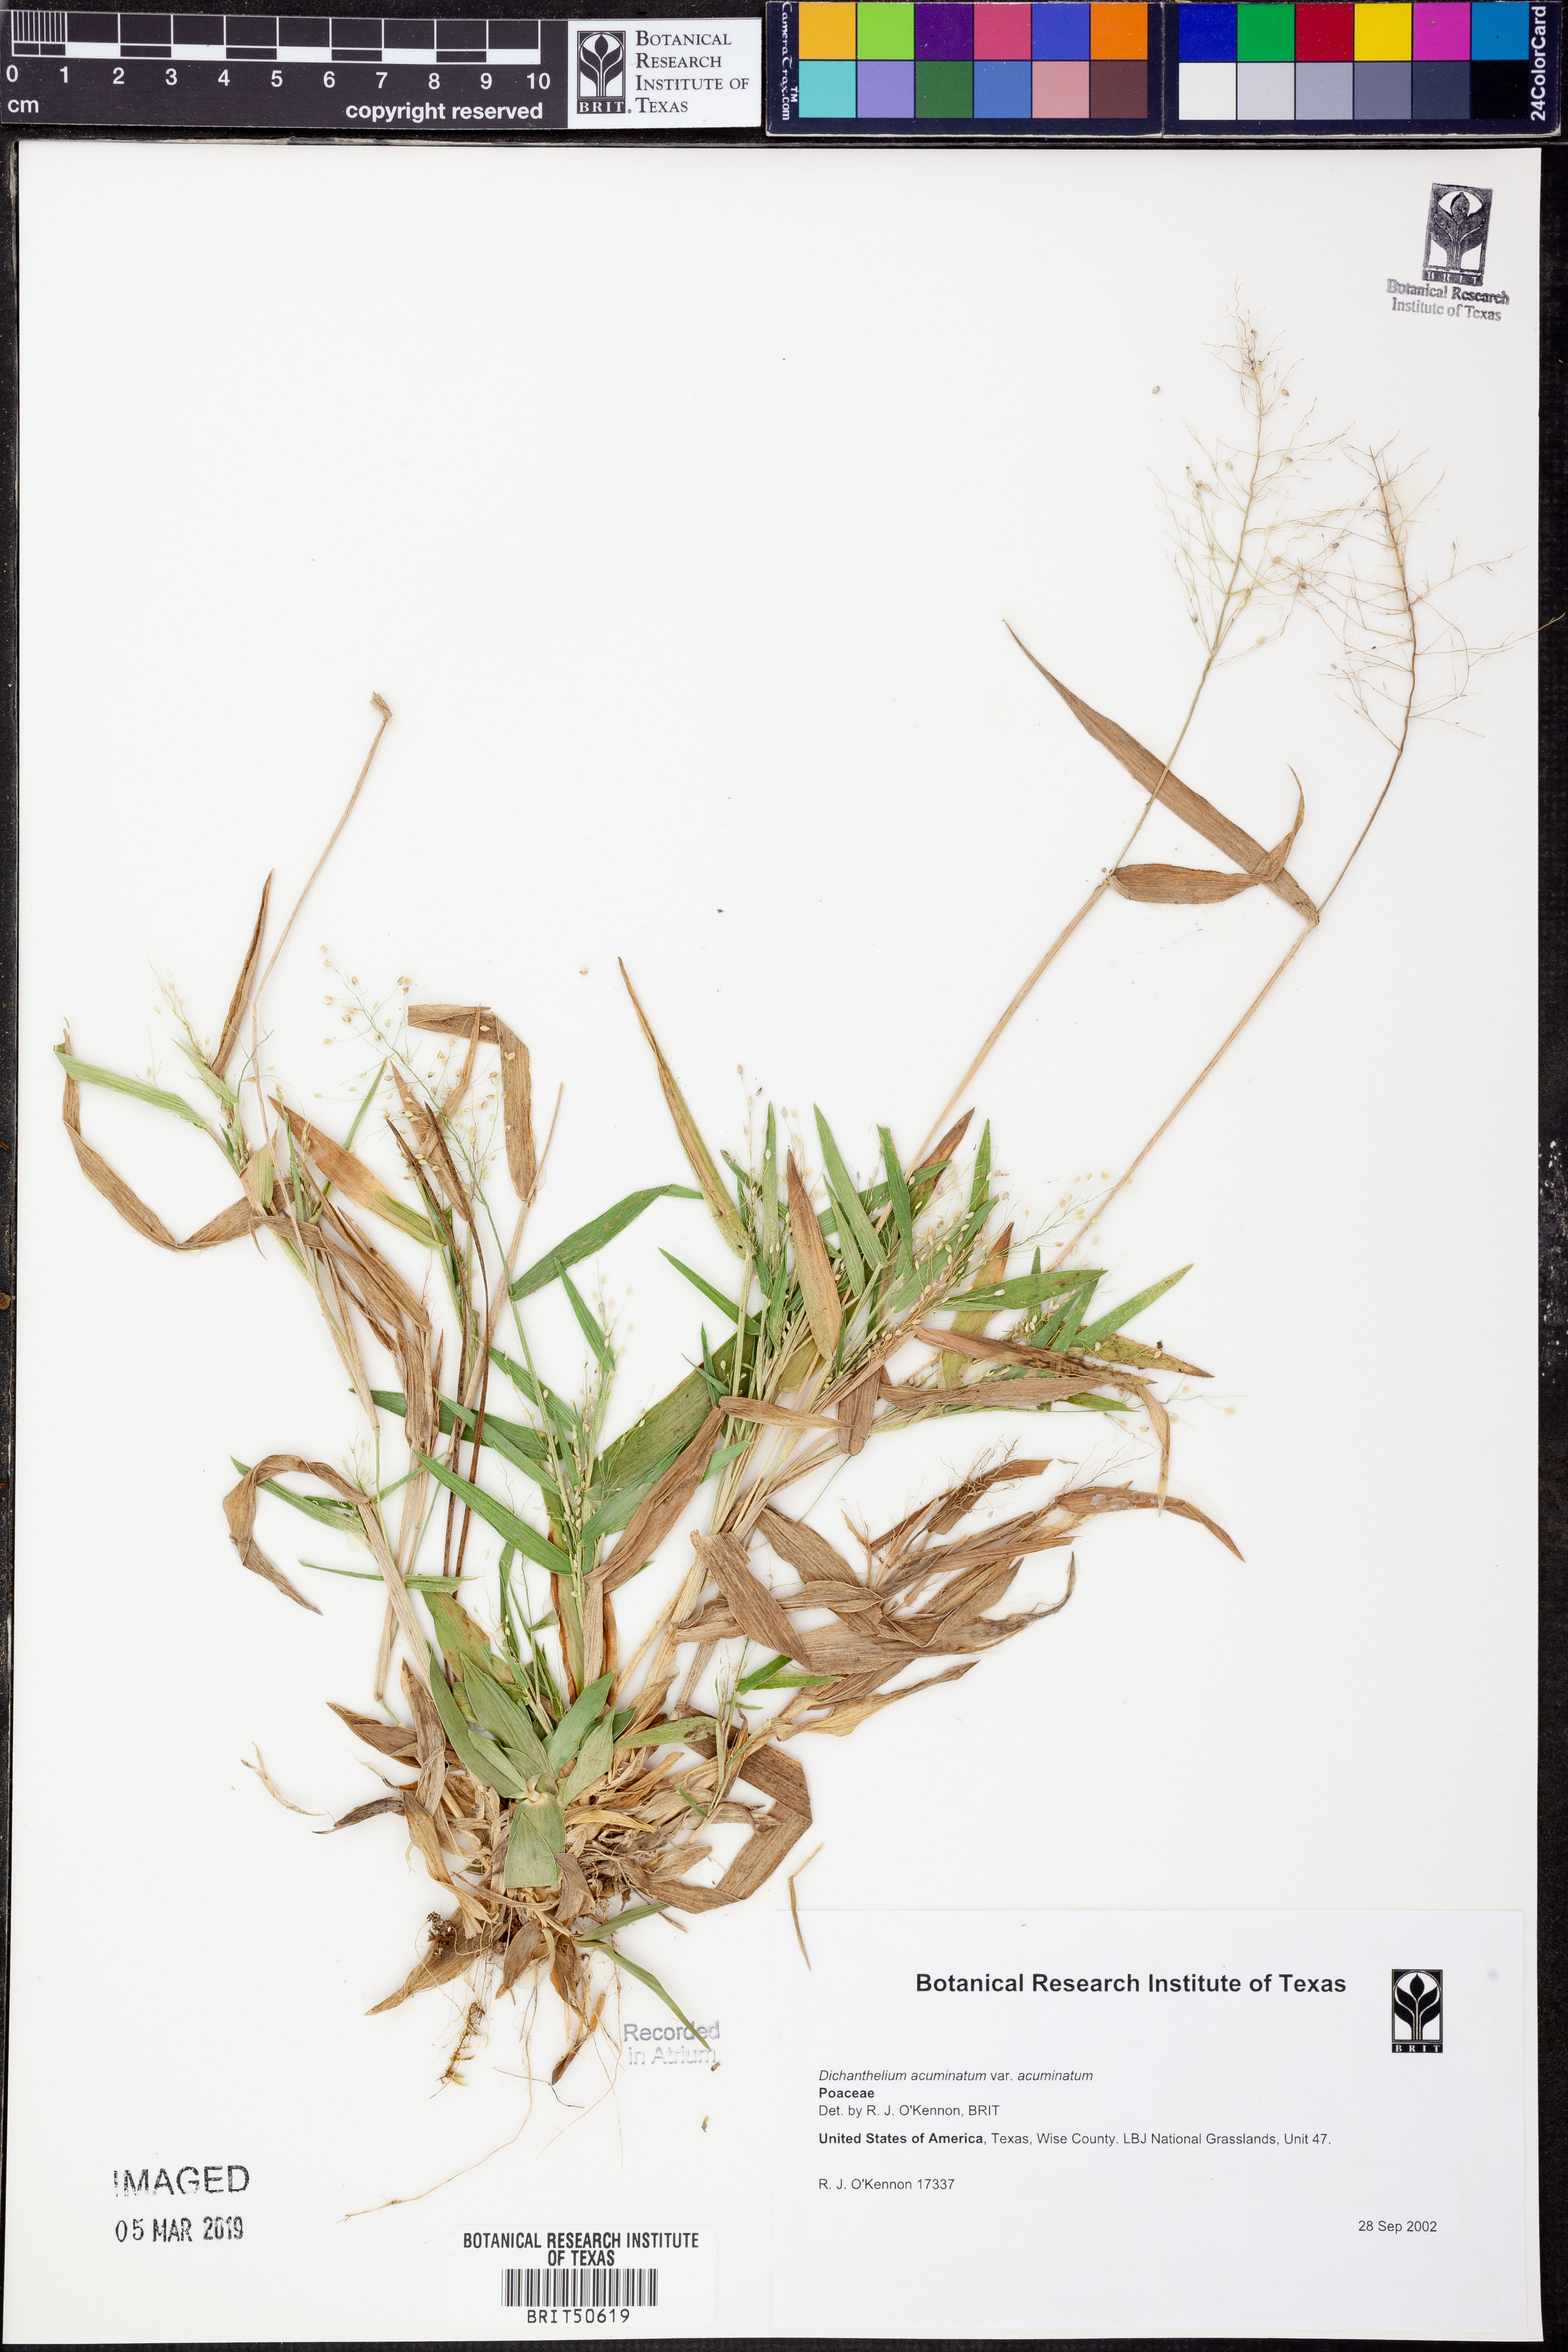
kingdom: Plantae
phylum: Tracheophyta
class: Liliopsida
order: Poales
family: Poaceae
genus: Dichanthelium
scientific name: Dichanthelium acuminatum
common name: Hairy panic grass
